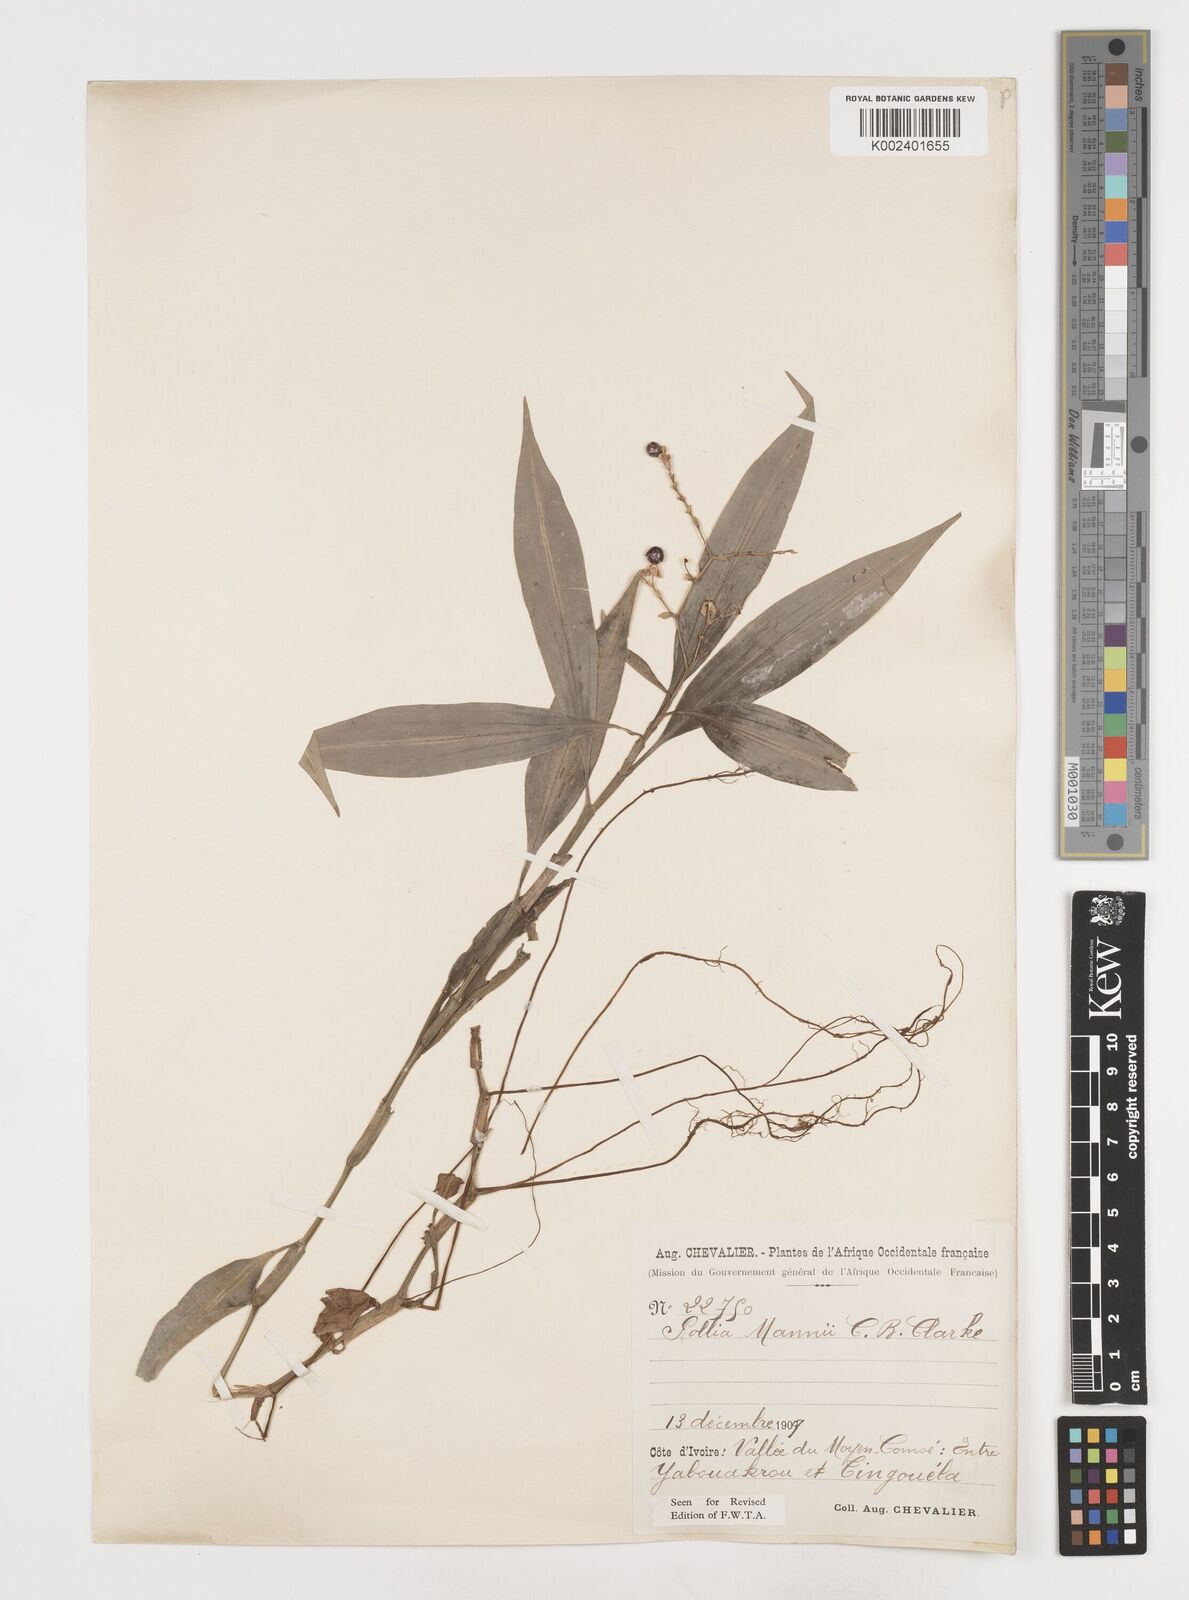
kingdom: Plantae
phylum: Tracheophyta
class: Liliopsida
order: Commelinales
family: Commelinaceae
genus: Pollia
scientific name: Pollia mannii
